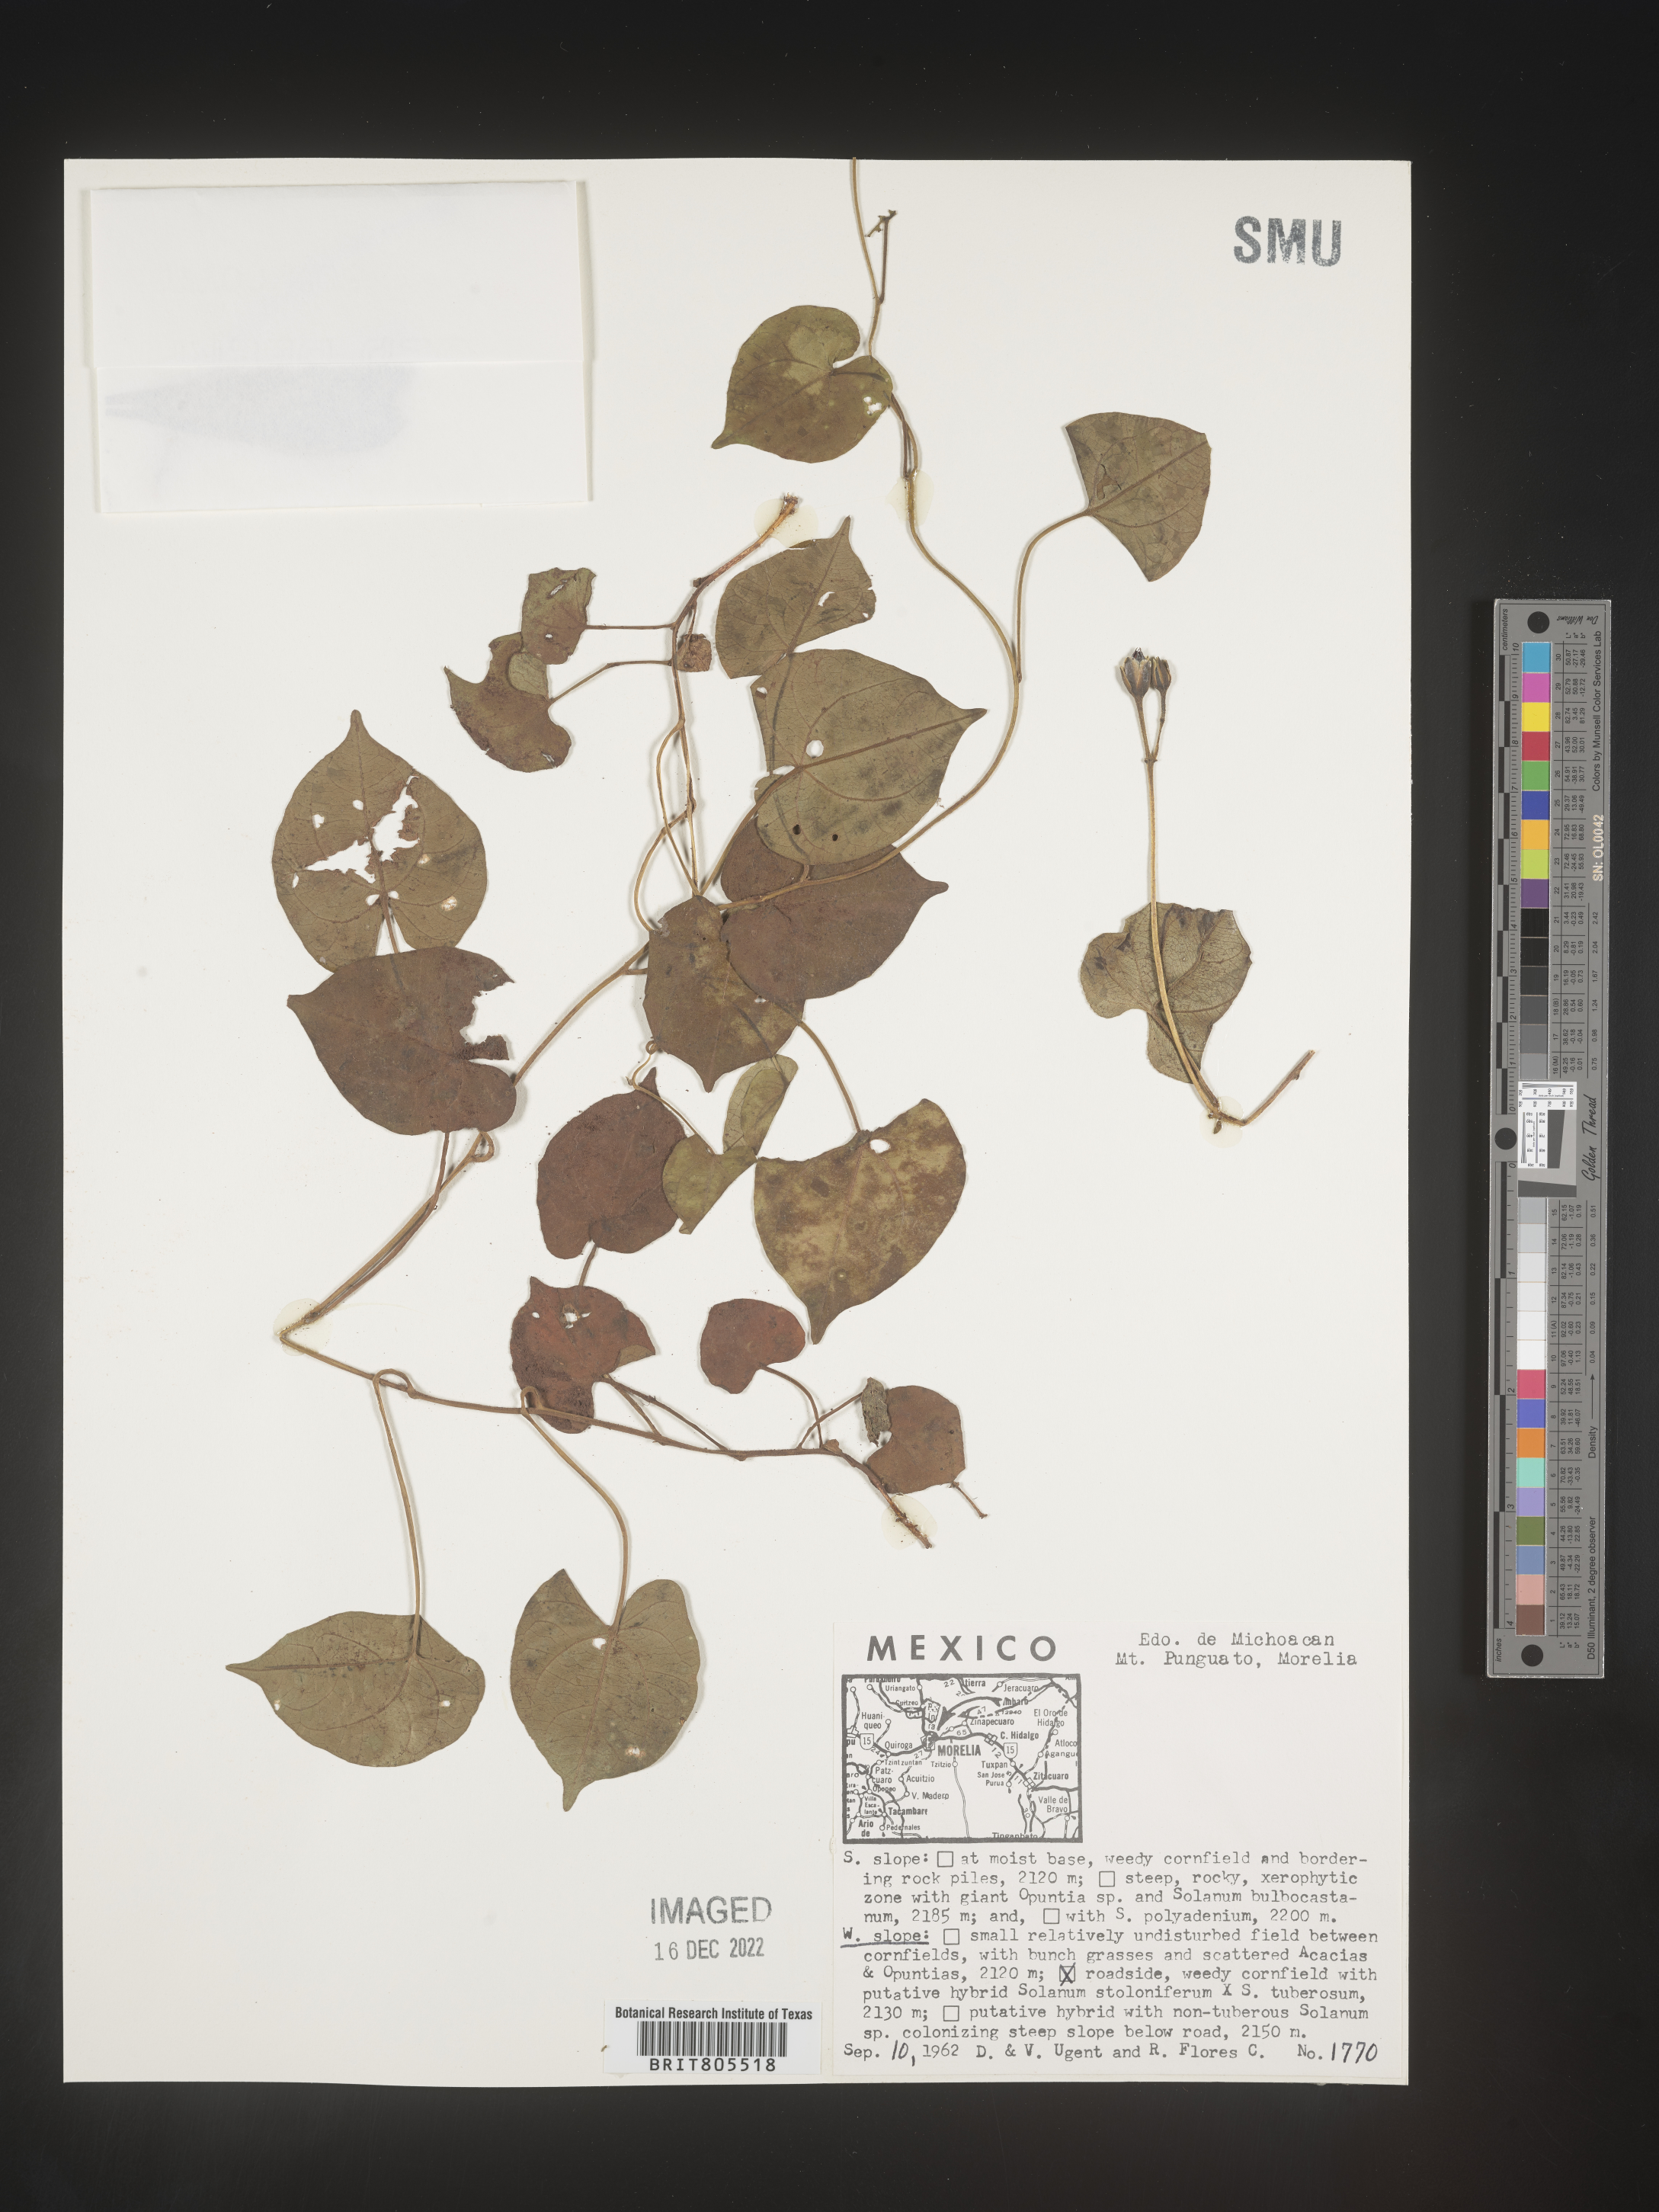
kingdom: Plantae
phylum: Tracheophyta
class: Magnoliopsida
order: Solanales
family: Convolvulaceae
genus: Ipomoea
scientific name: Ipomoea
